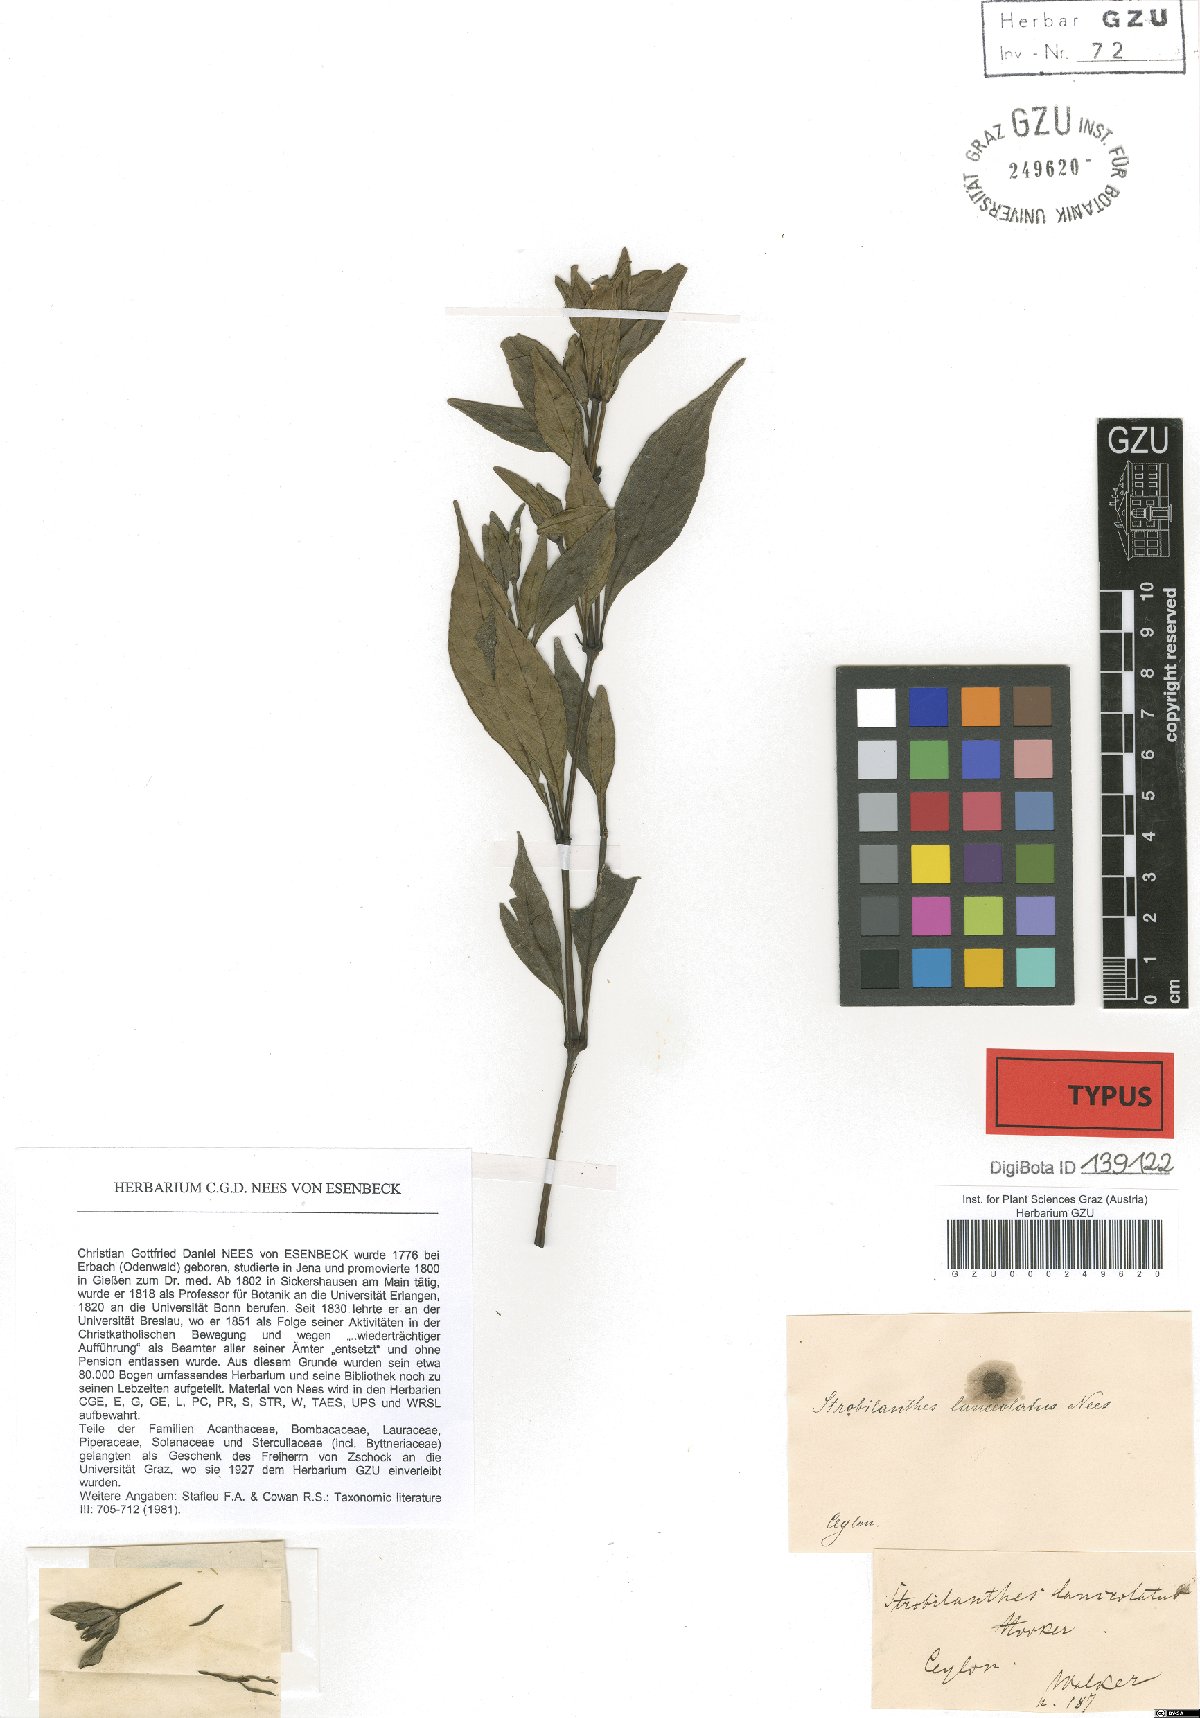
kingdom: Plantae
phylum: Tracheophyta
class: Magnoliopsida
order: Lamiales
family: Acanthaceae
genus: Strobilanthes
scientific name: Strobilanthes adenophora
